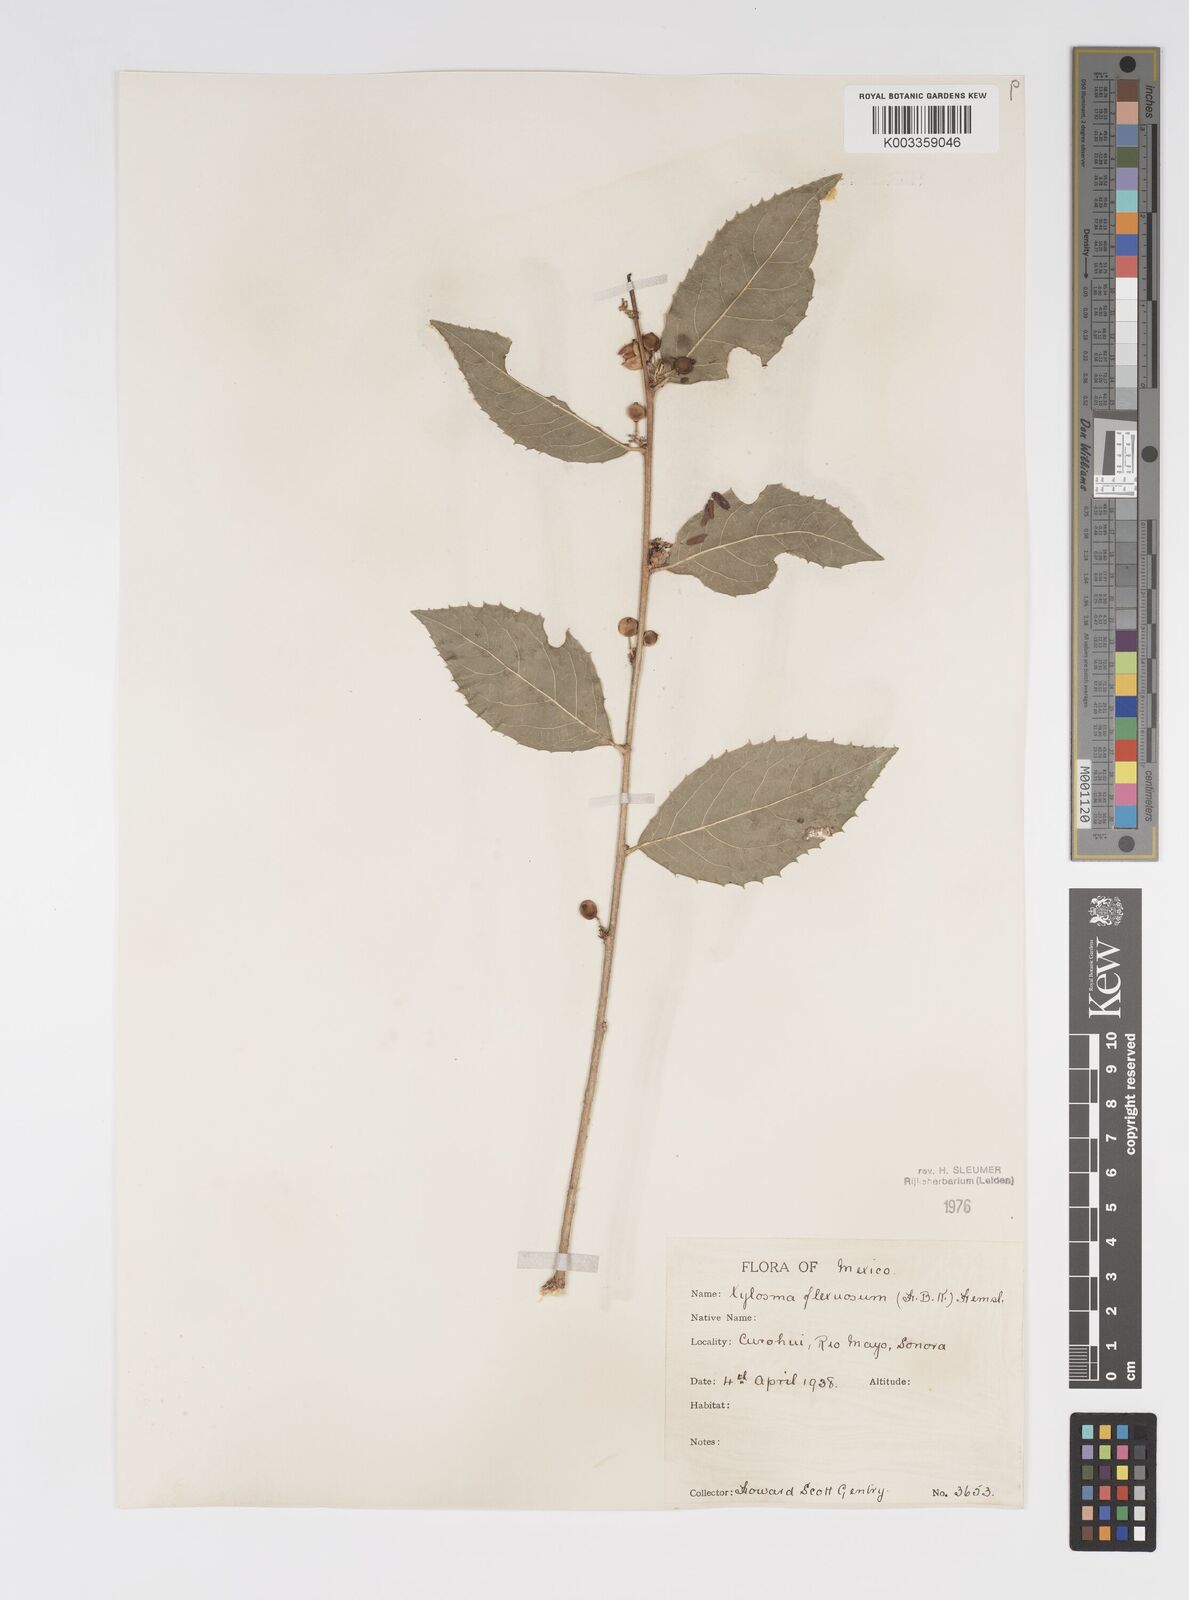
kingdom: Plantae
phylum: Tracheophyta
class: Magnoliopsida
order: Malpighiales
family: Salicaceae
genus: Xylosma
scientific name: Xylosma flexuosa
